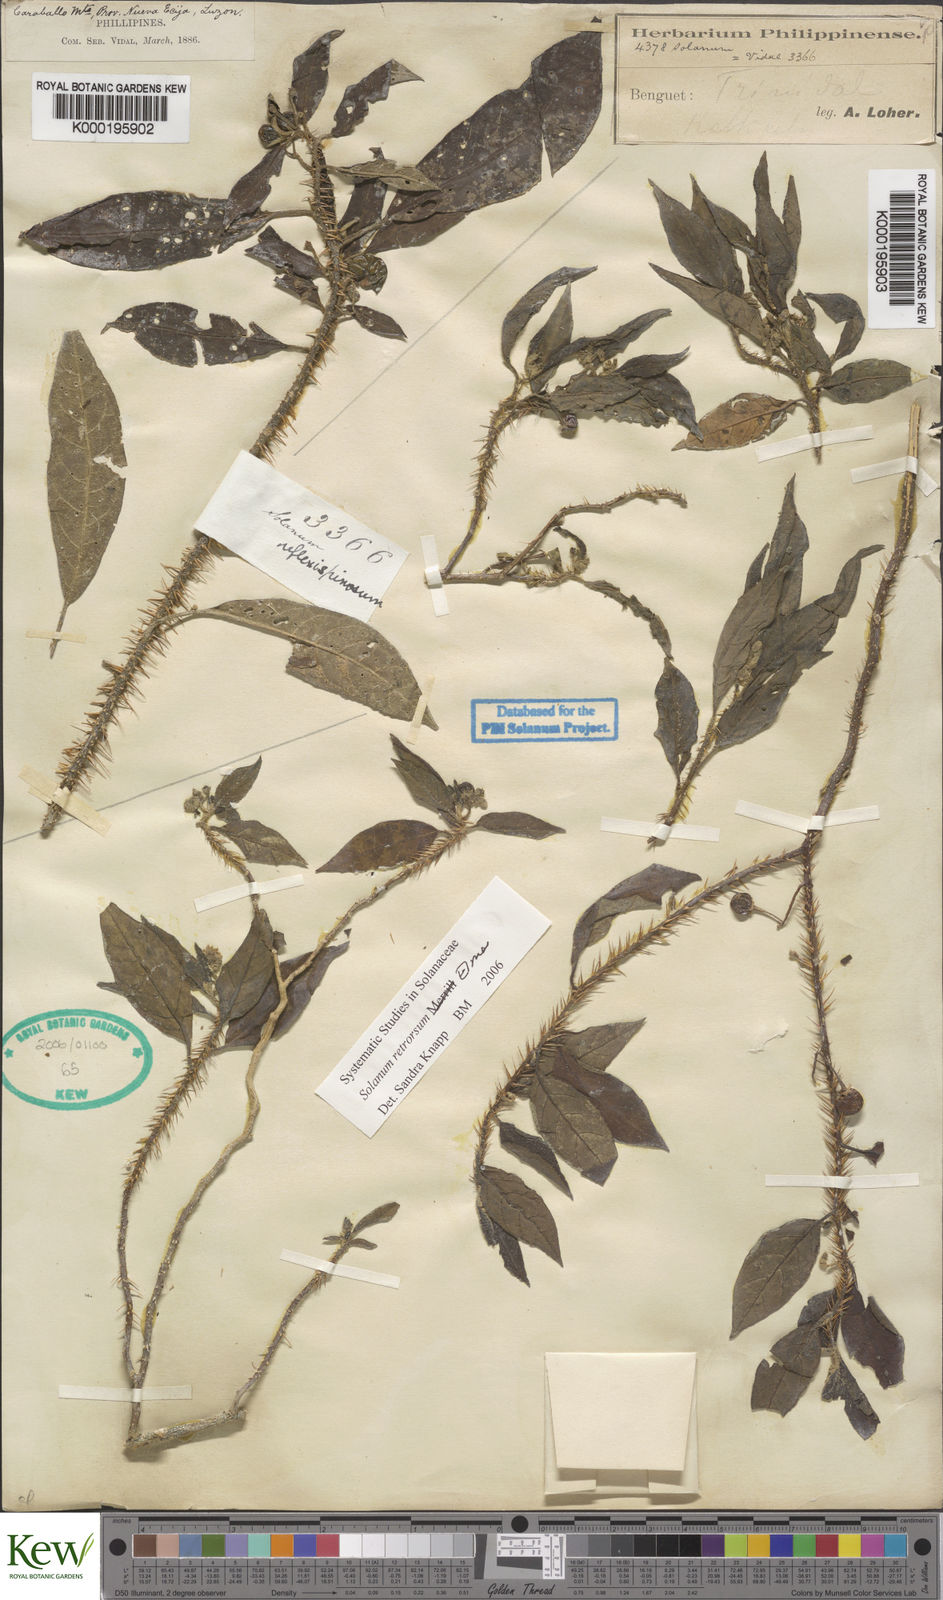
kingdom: Plantae
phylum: Tracheophyta
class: Magnoliopsida
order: Solanales
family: Solanaceae
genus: Solanum
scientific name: Solanum retrorsum
